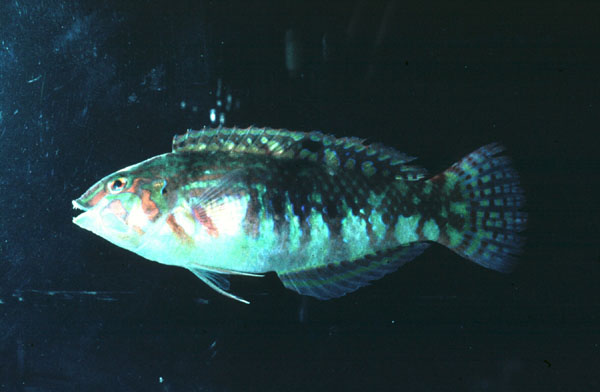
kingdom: Animalia
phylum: Chordata
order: Perciformes
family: Labridae
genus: Halichoeres
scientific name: Halichoeres nebulosus
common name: Clouded wrasse
